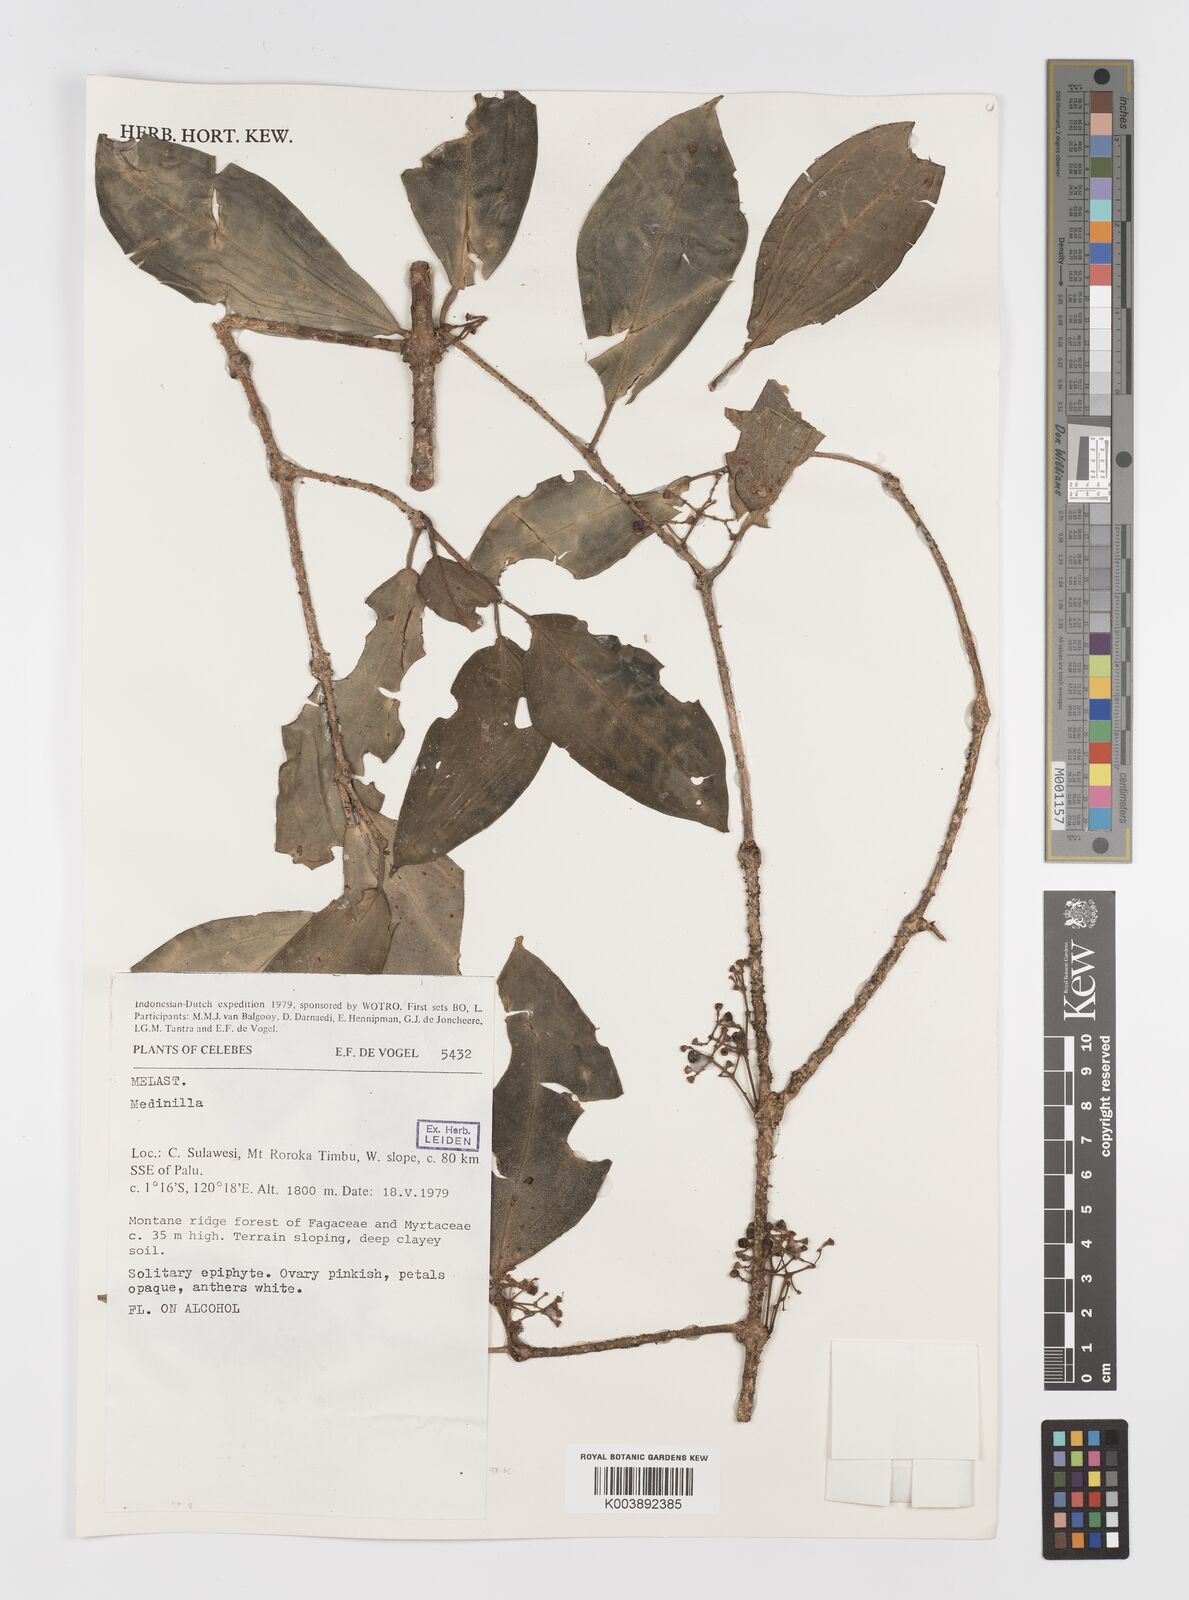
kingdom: Plantae
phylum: Tracheophyta
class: Magnoliopsida
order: Myrtales
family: Melastomataceae
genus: Medinilla
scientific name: Medinilla
